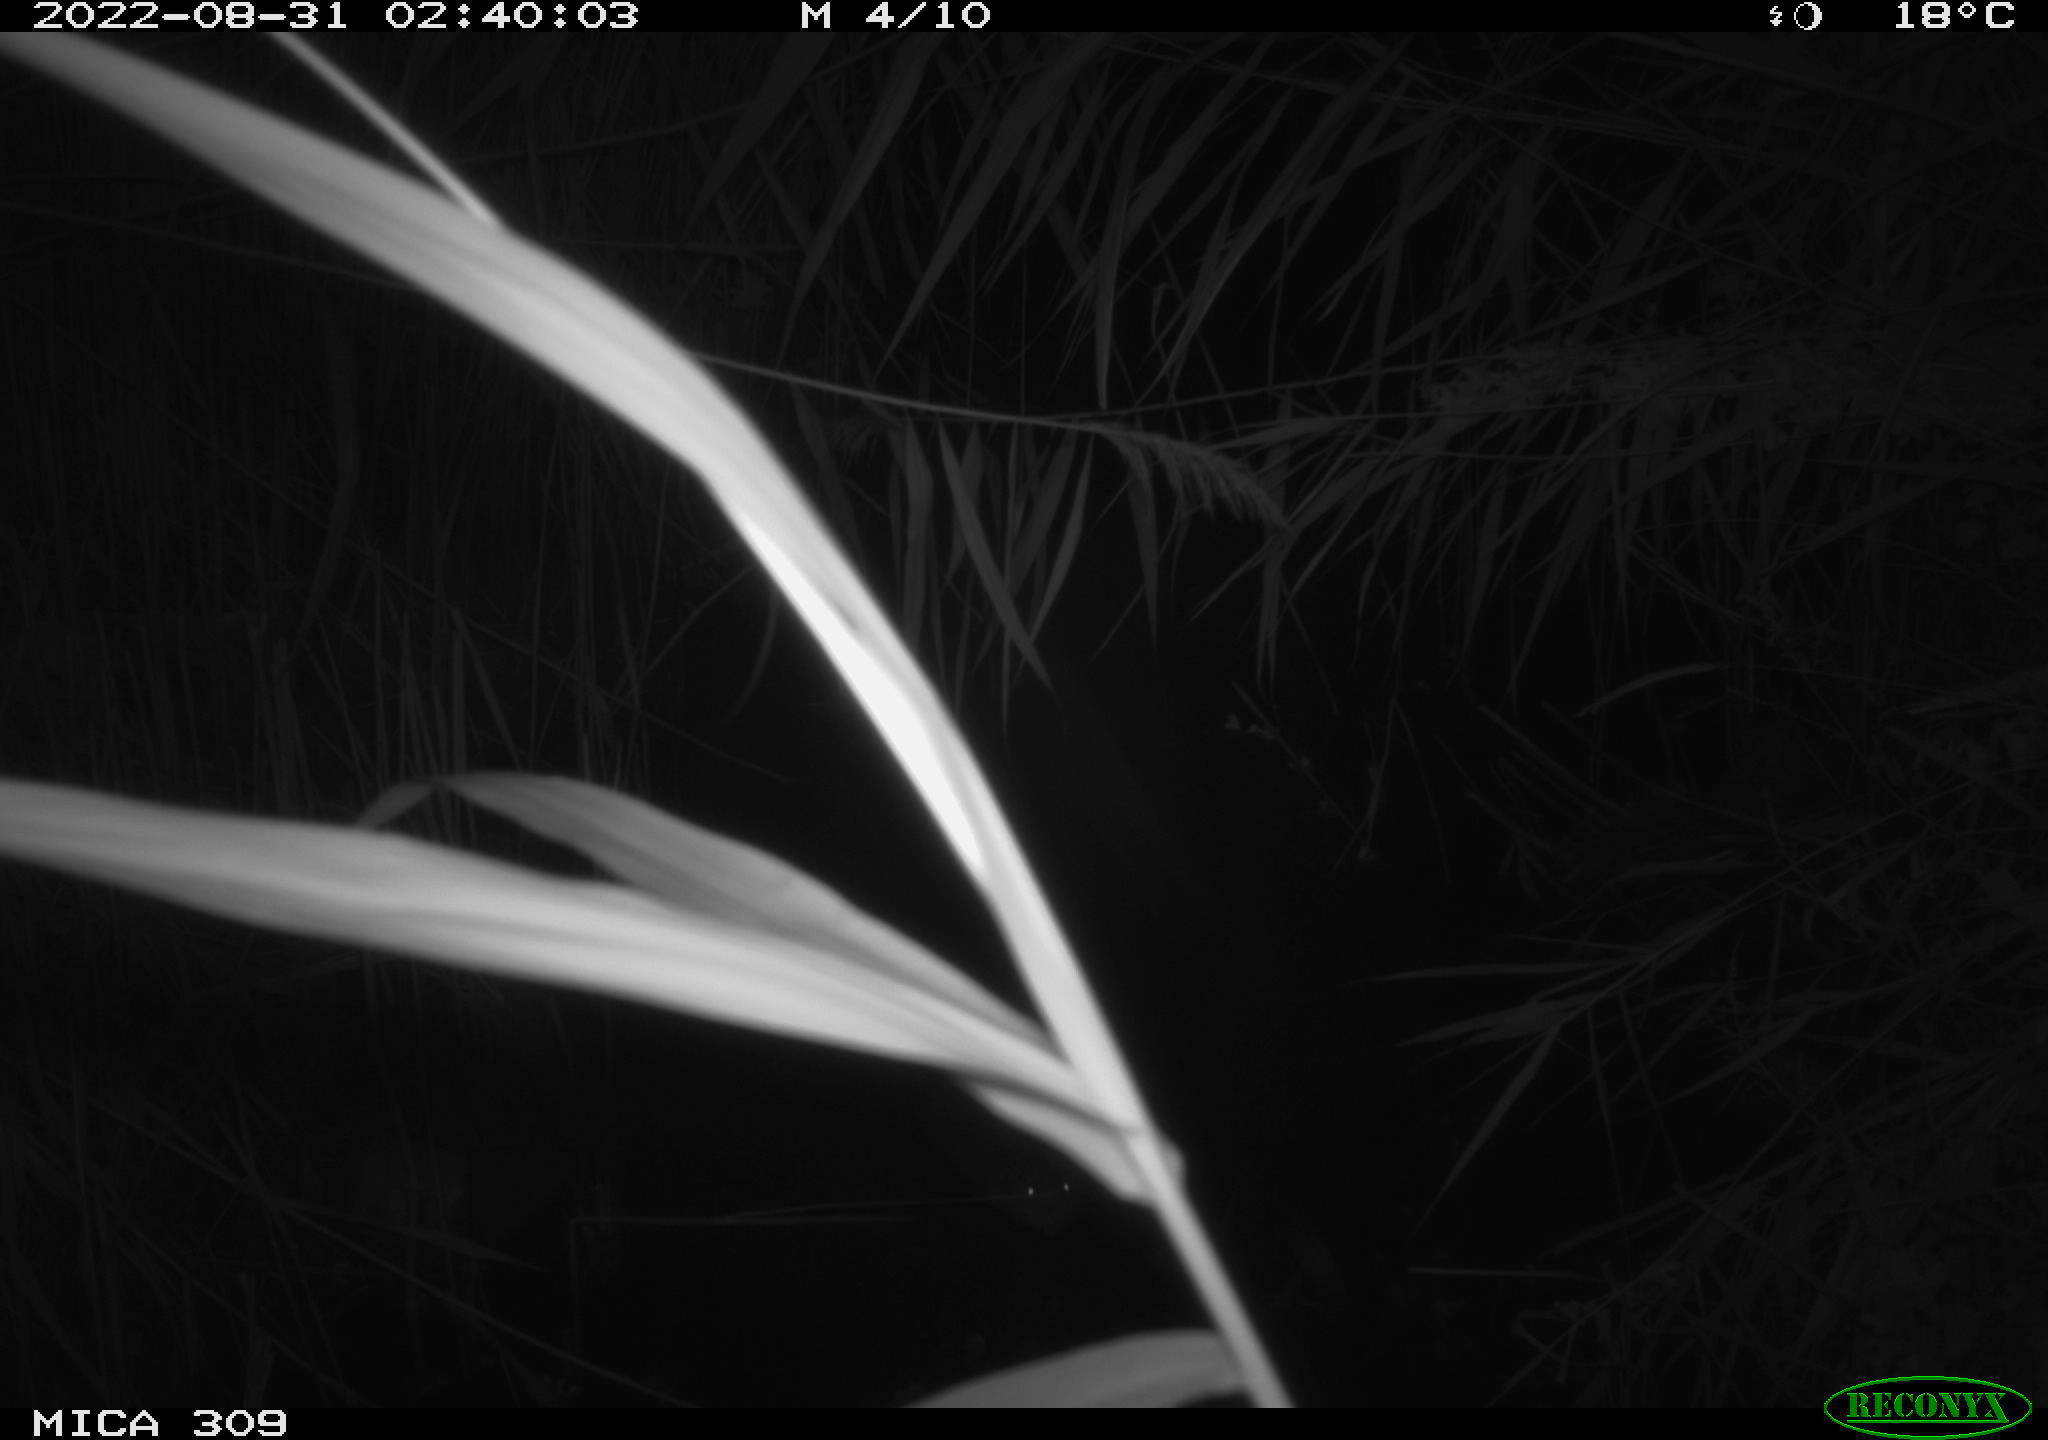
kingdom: Animalia
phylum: Chordata
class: Mammalia
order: Rodentia
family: Cricetidae
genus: Ondatra
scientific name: Ondatra zibethicus
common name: Muskrat
